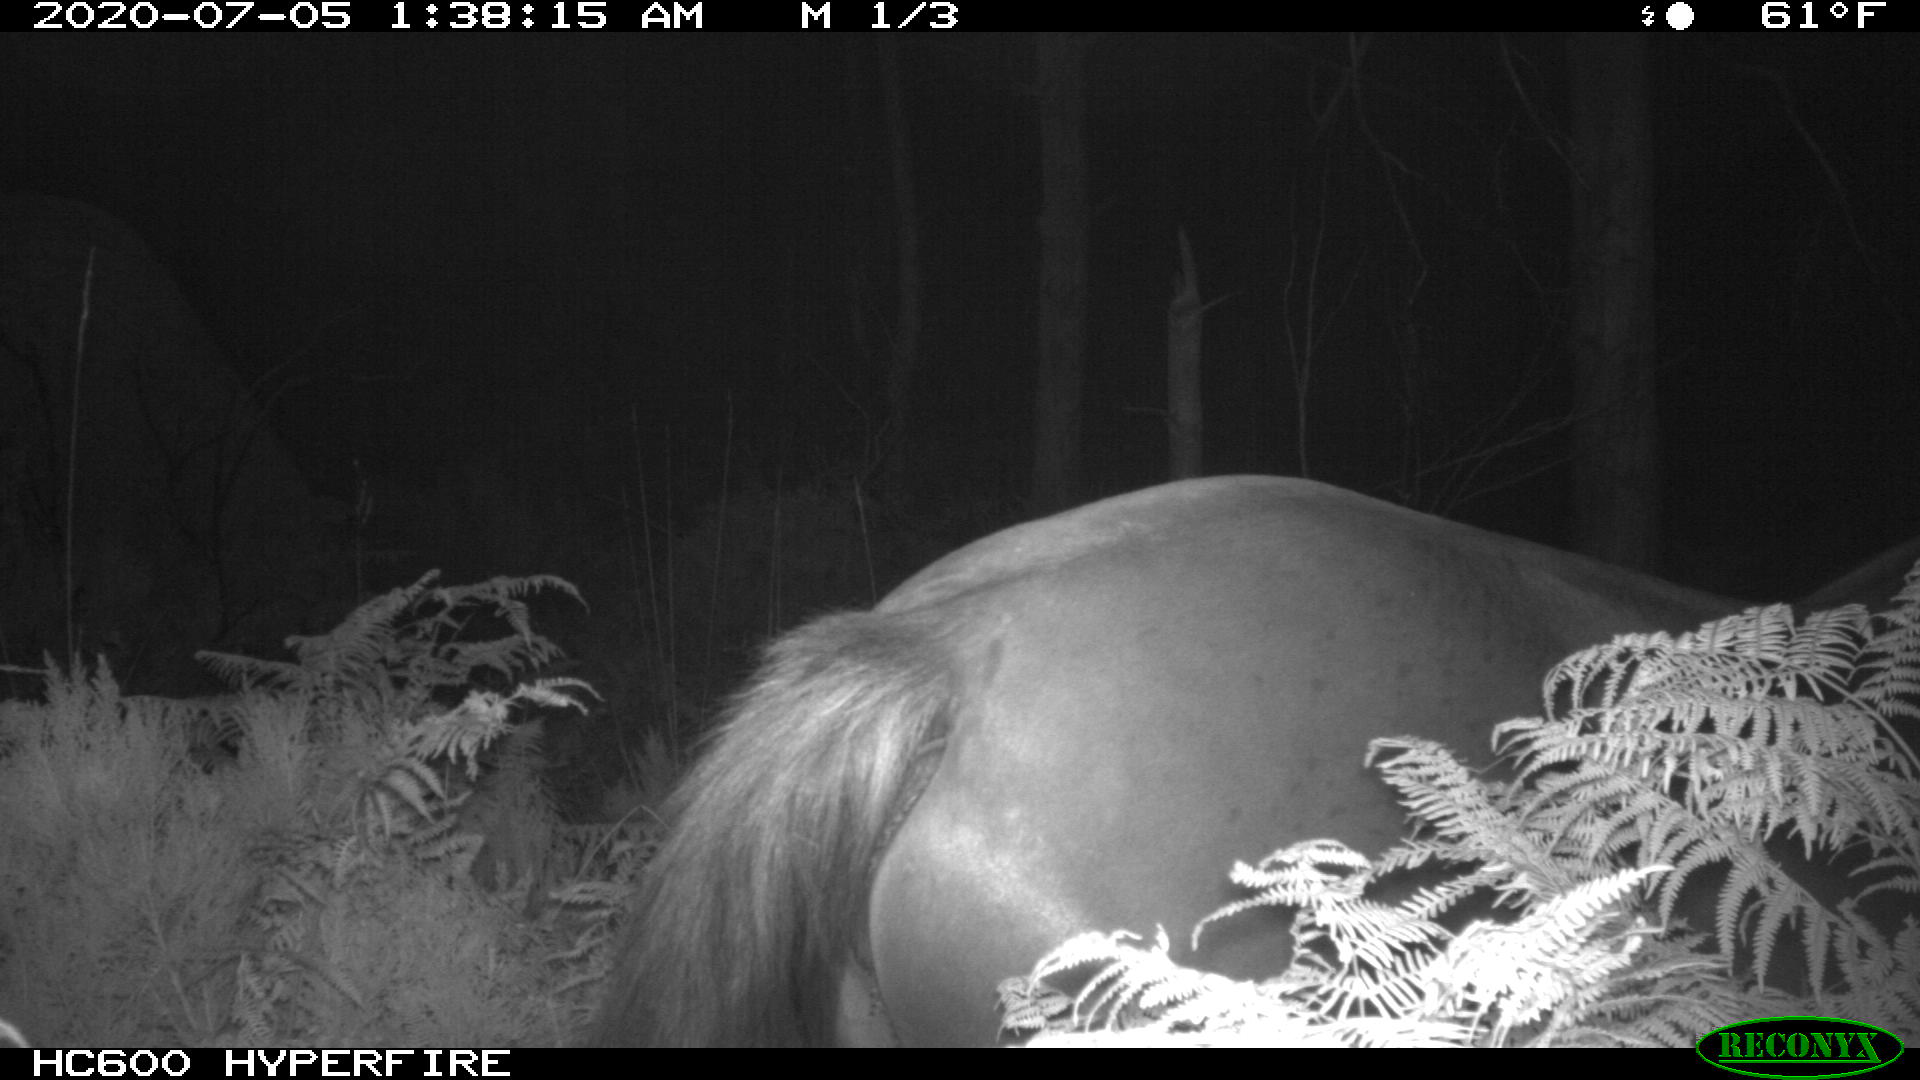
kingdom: Animalia
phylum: Chordata
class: Mammalia
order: Perissodactyla
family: Equidae
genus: Equus
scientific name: Equus caballus
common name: Horse
